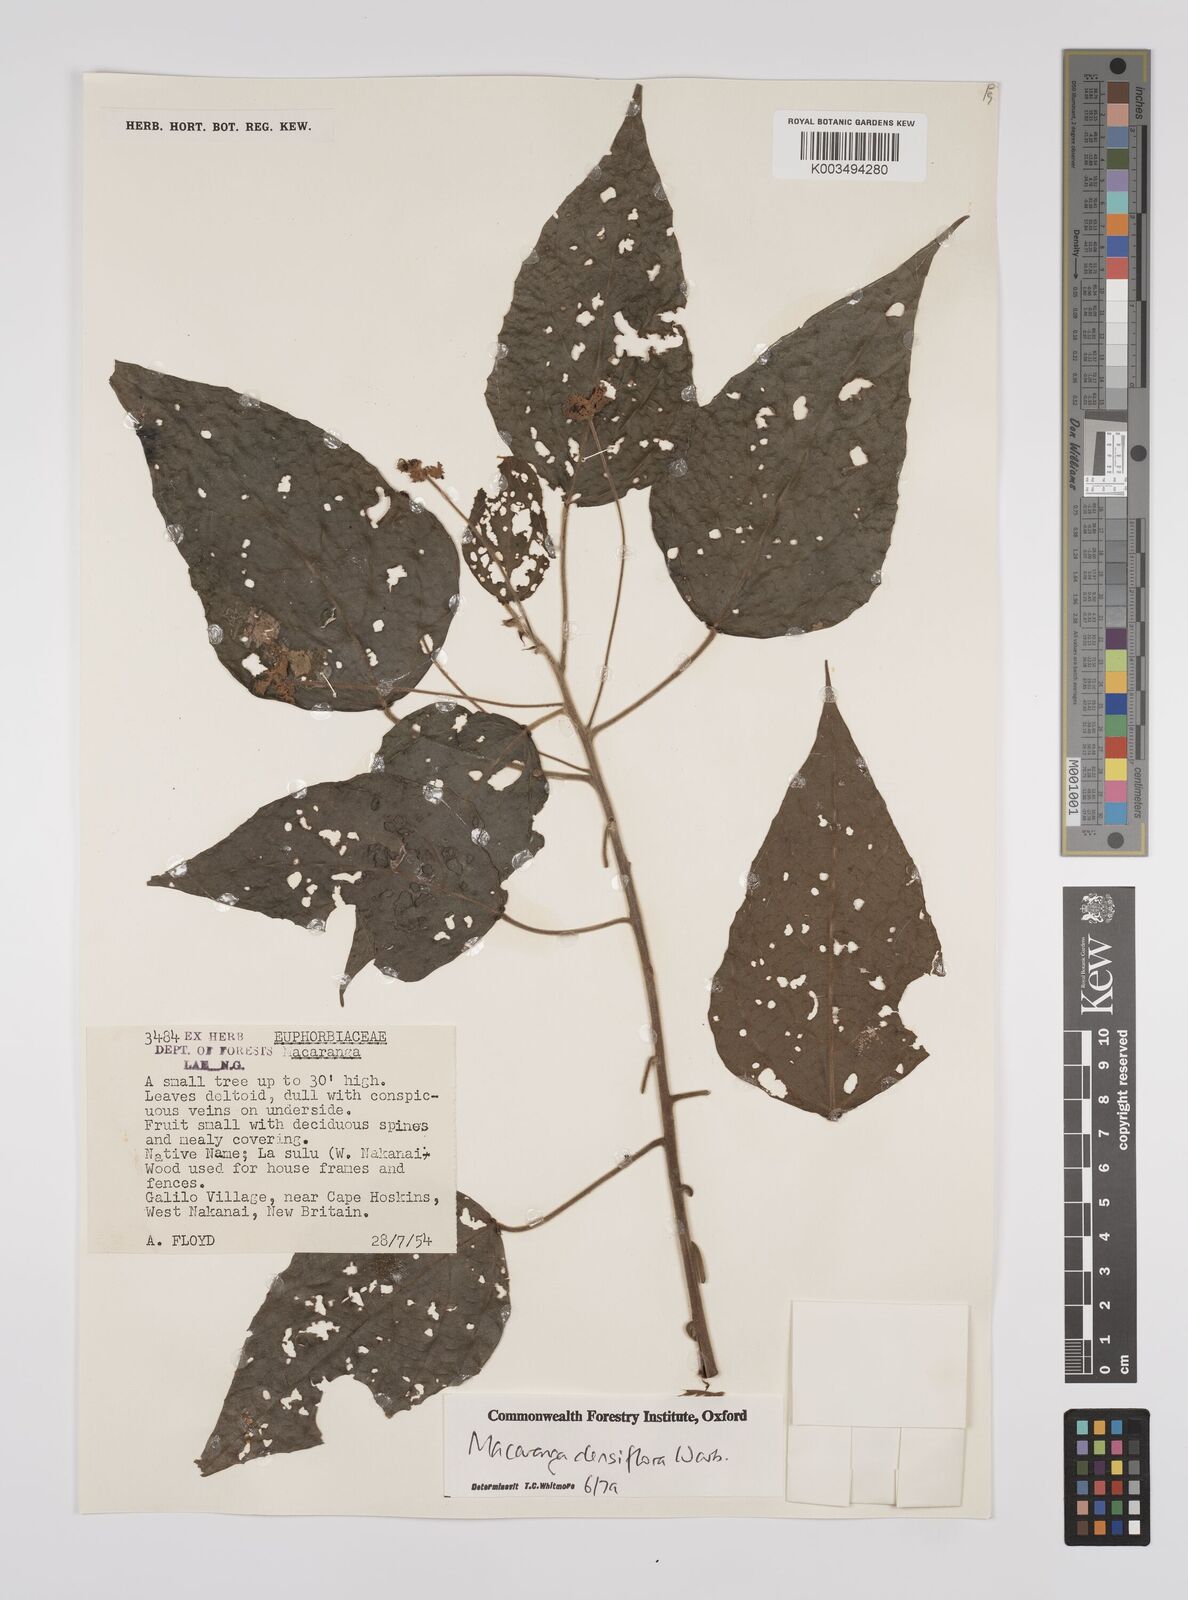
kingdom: Plantae
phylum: Tracheophyta
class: Magnoliopsida
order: Malpighiales
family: Euphorbiaceae
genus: Macaranga
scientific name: Macaranga densiflora
